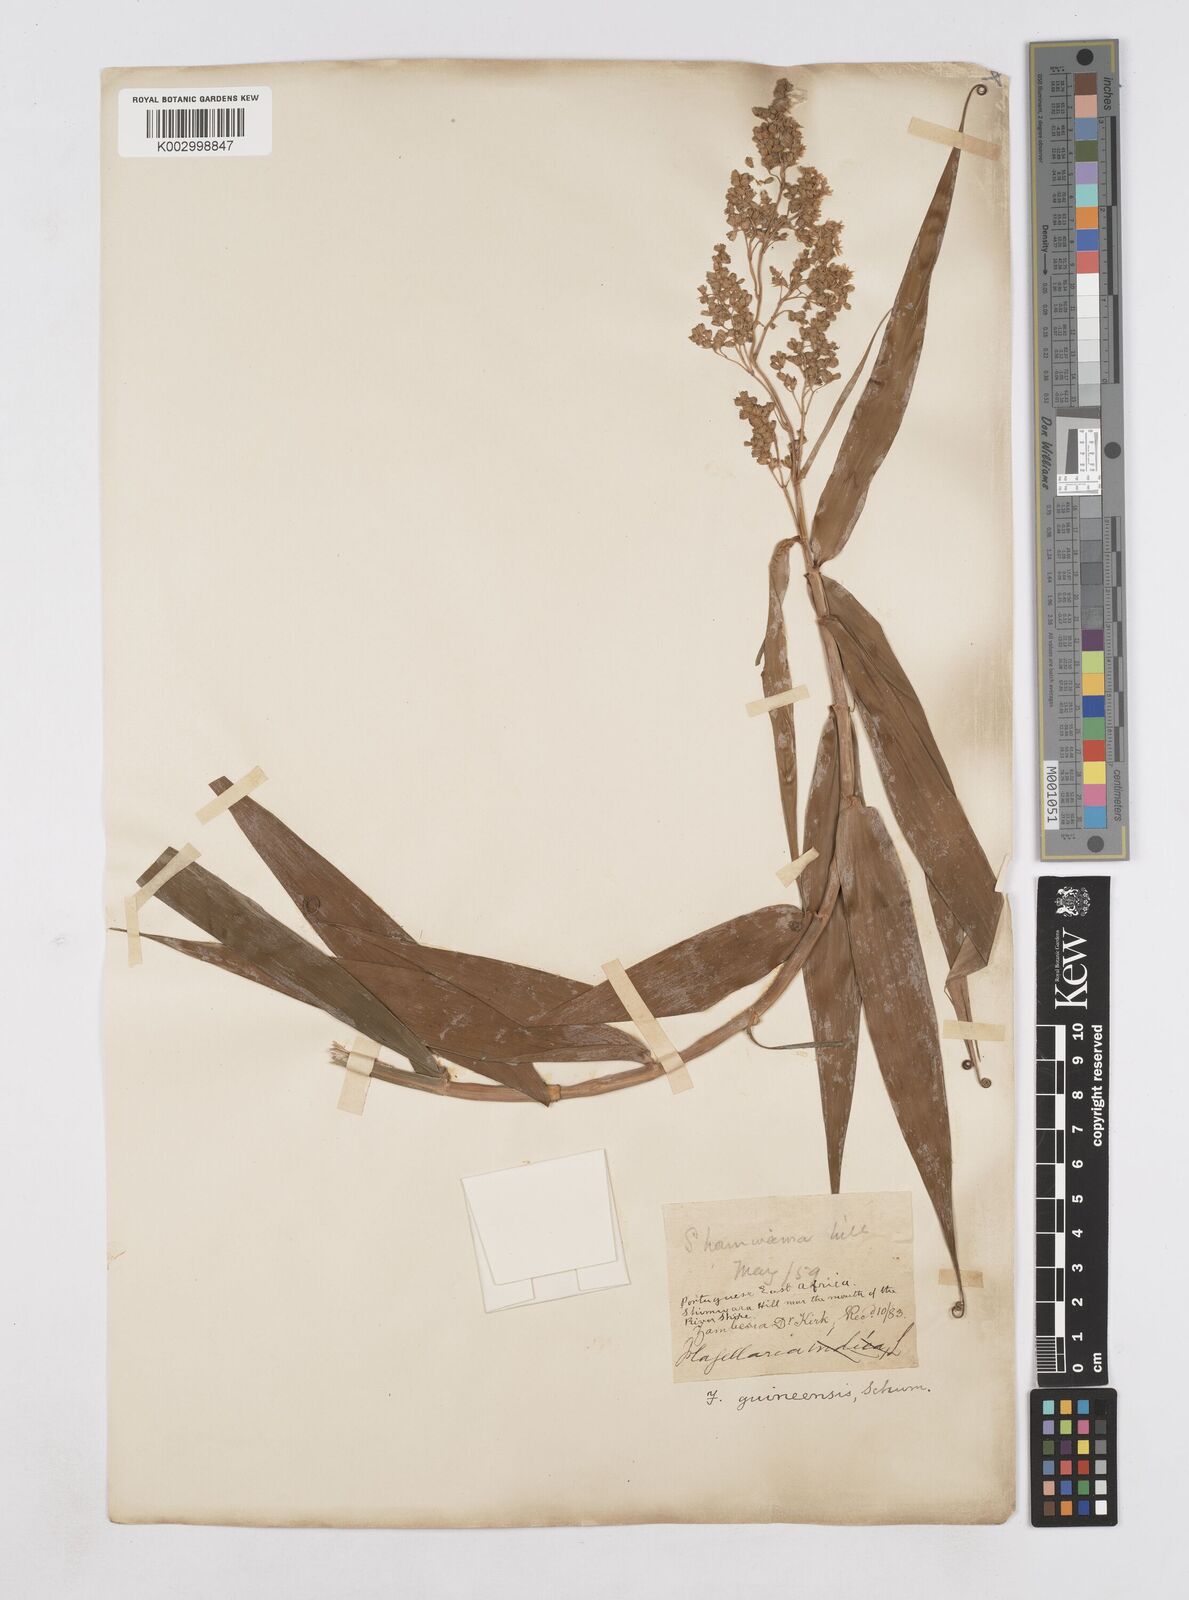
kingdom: Plantae
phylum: Tracheophyta
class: Liliopsida
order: Poales
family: Flagellariaceae
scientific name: Flagellariaceae
